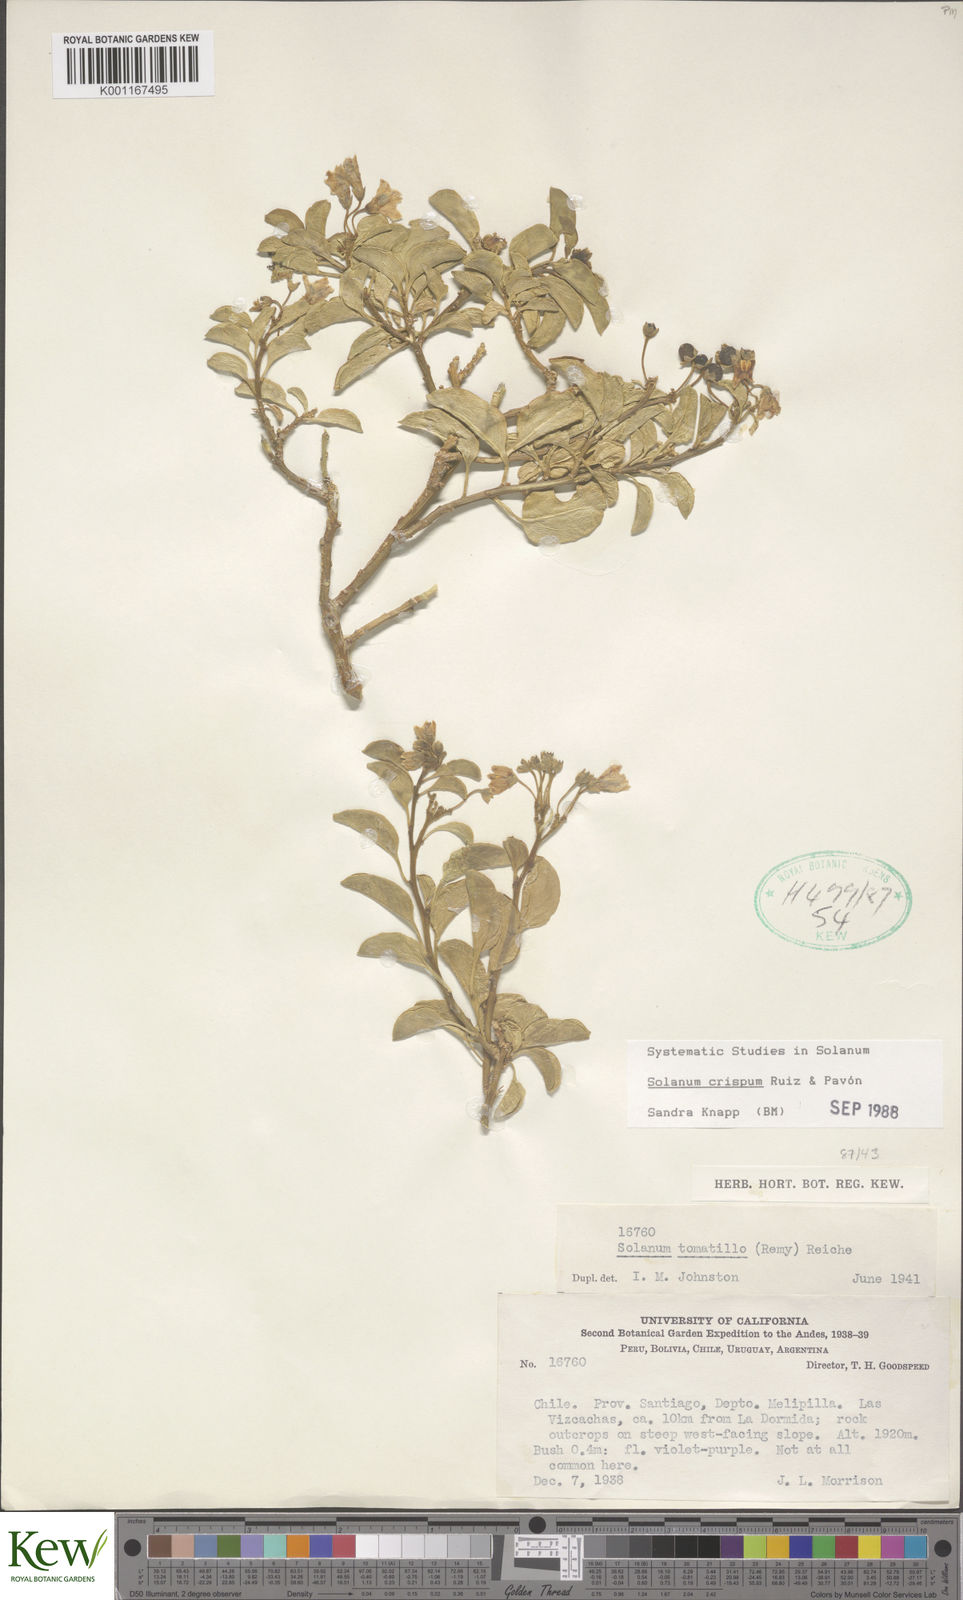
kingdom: Plantae
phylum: Tracheophyta
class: Magnoliopsida
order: Solanales
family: Solanaceae
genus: Solanum
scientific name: Solanum crispum
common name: Chilean nightshade
